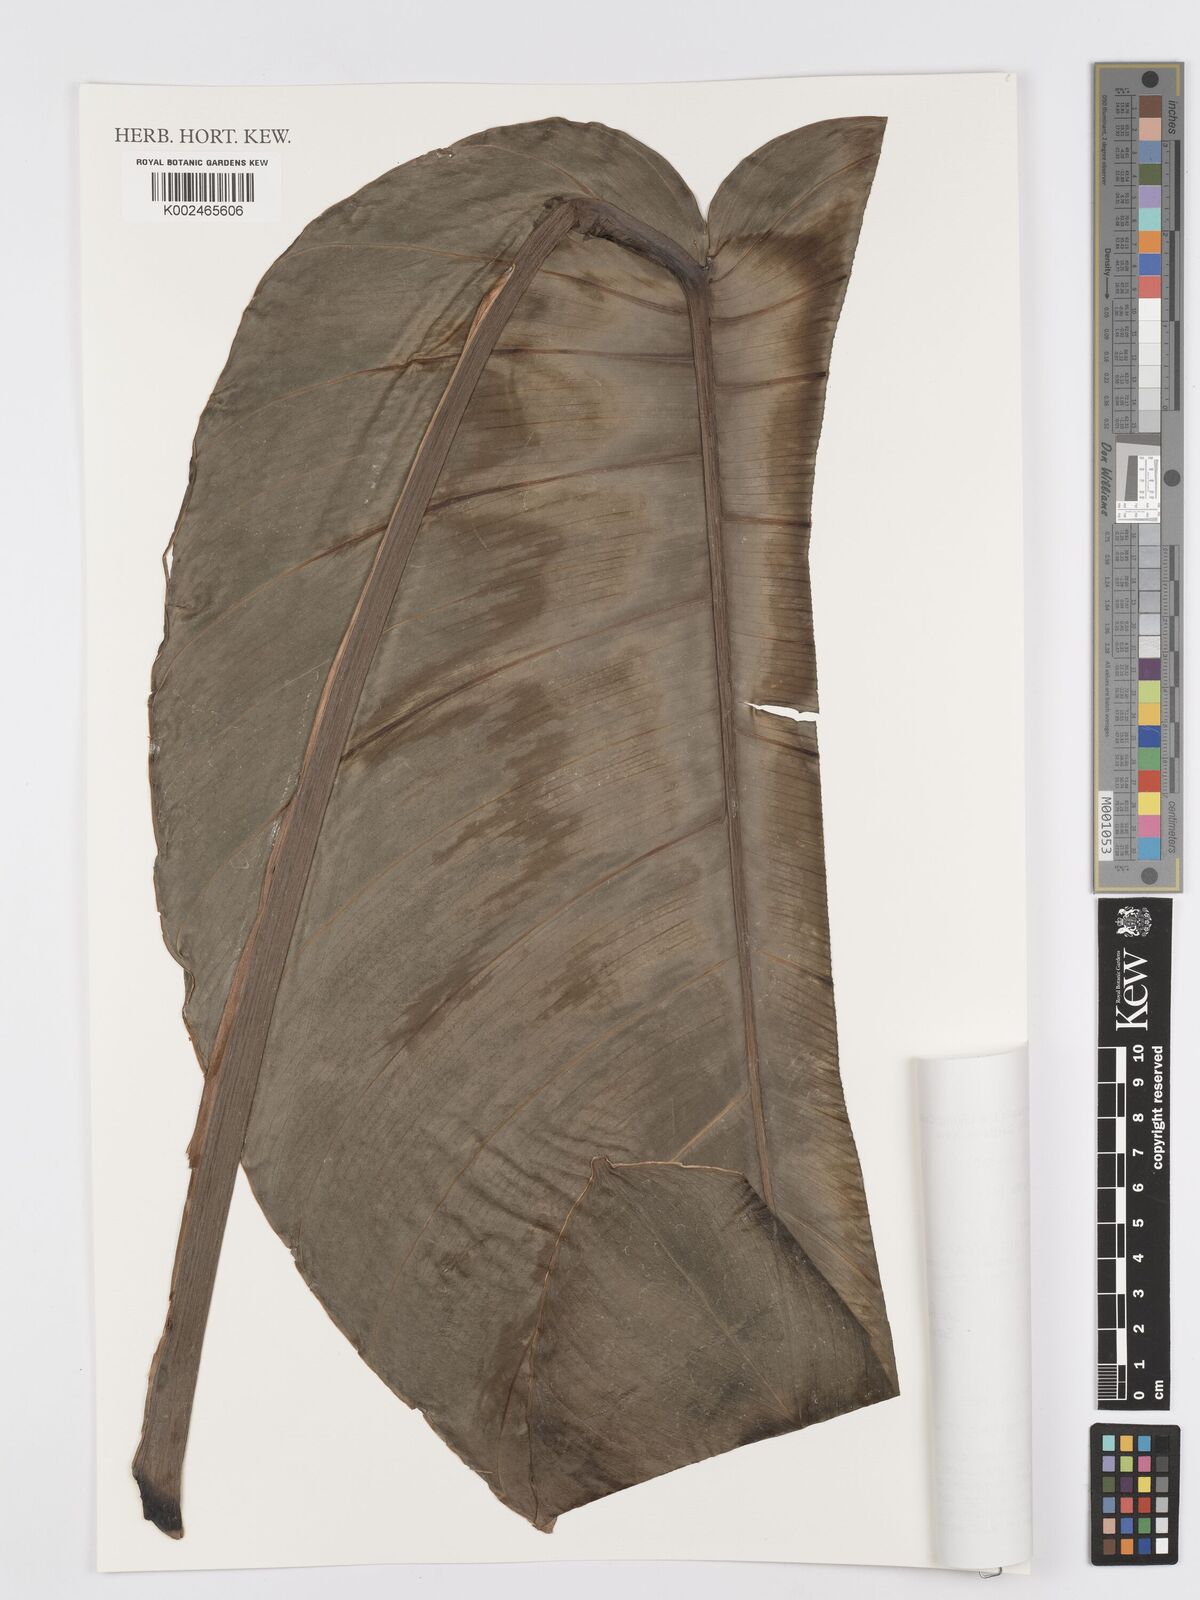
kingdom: Plantae
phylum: Tracheophyta
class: Liliopsida
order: Alismatales
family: Araceae
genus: Rhaphidophora
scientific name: Rhaphidophora megaphylla
